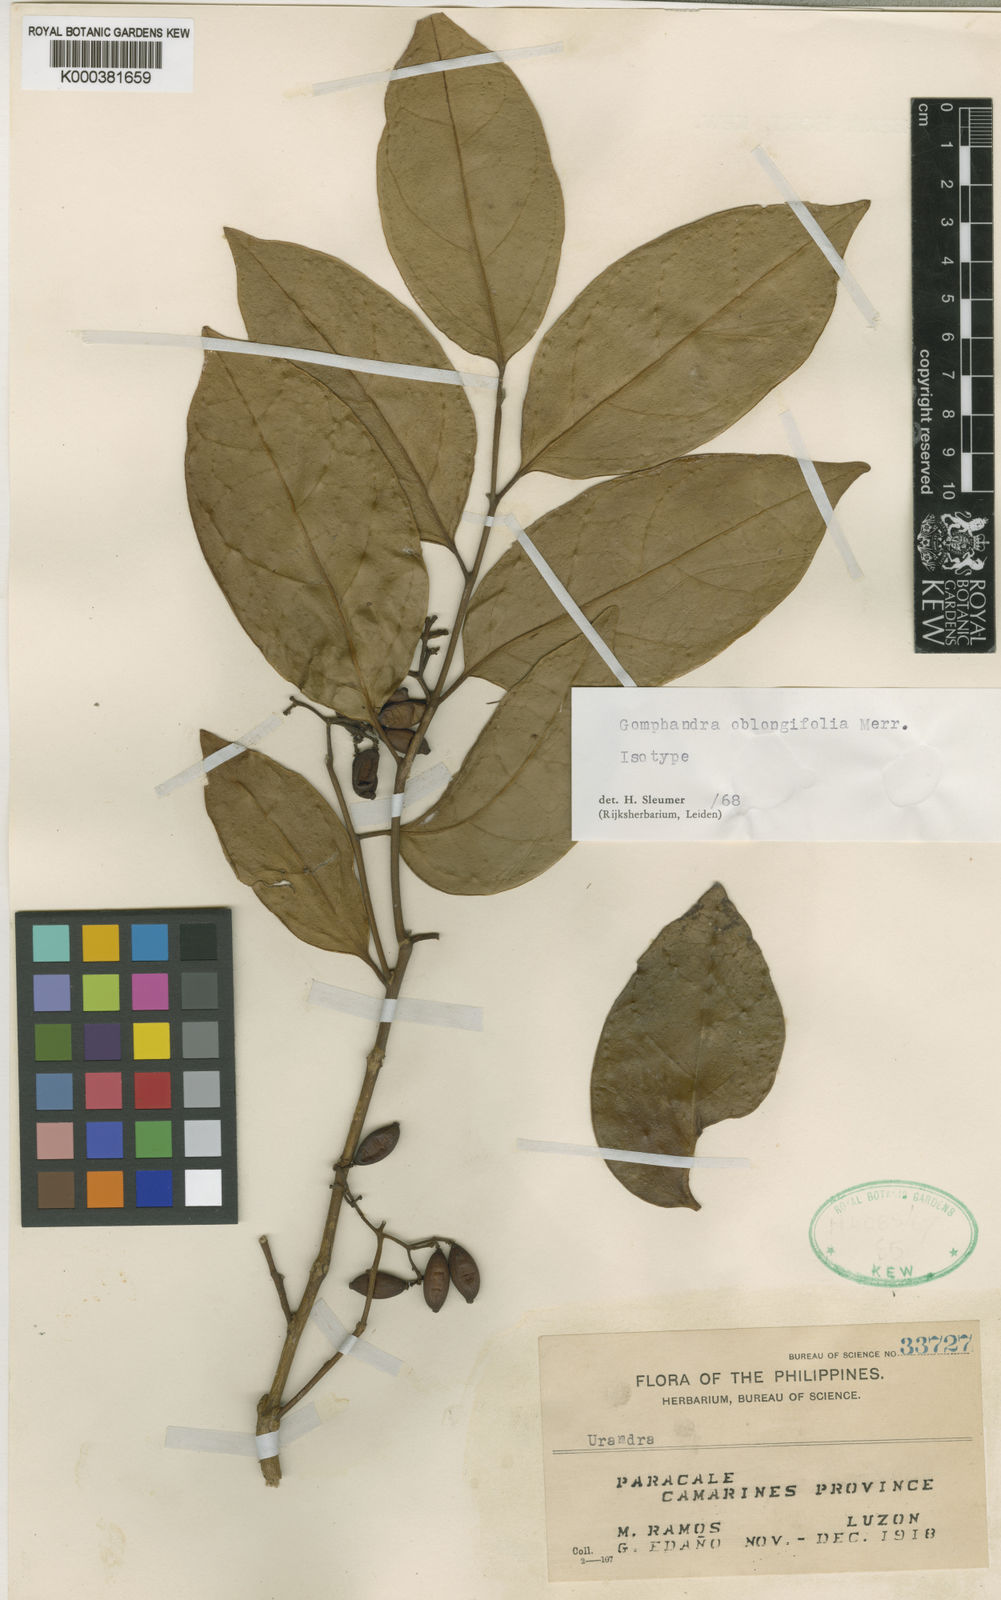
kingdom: Plantae
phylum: Tracheophyta
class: Magnoliopsida
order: Cardiopteridales
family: Stemonuraceae
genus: Gomphandra
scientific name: Gomphandra oblongifolia
